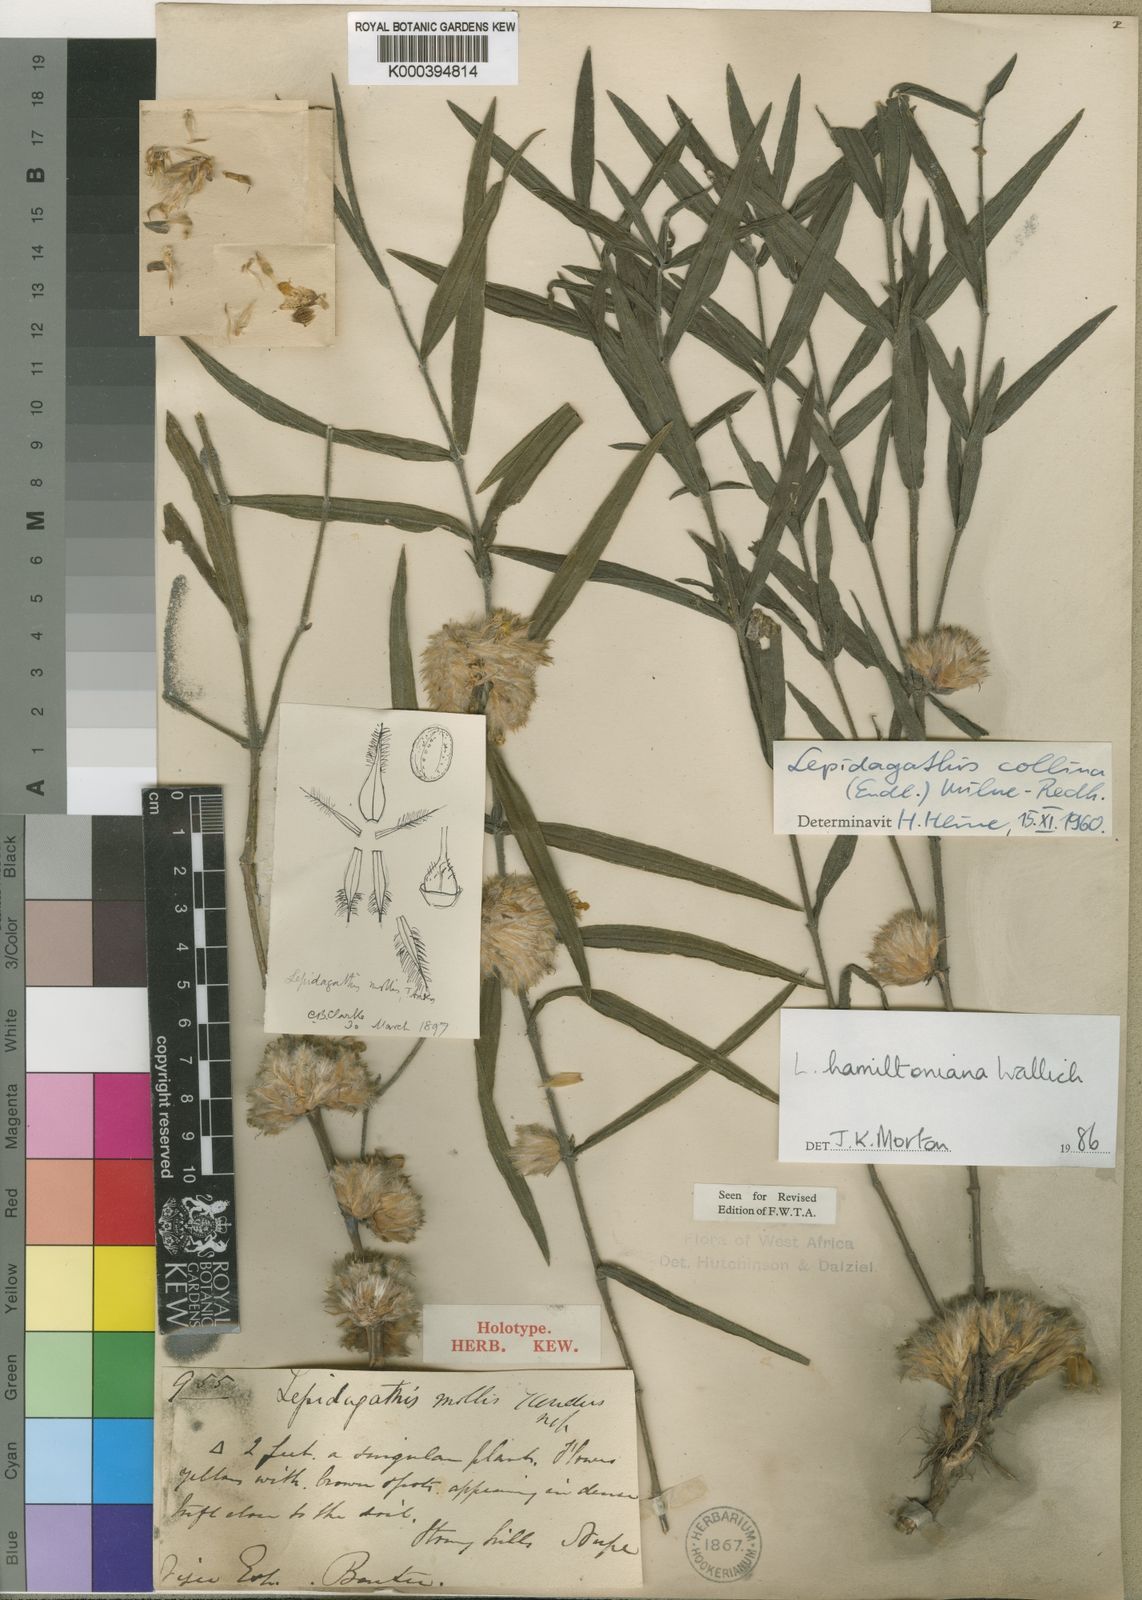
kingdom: Plantae
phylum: Tracheophyta
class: Magnoliopsida
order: Lamiales
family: Acanthaceae
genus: Lepidagathis
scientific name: Lepidagathis hamiltoniana
